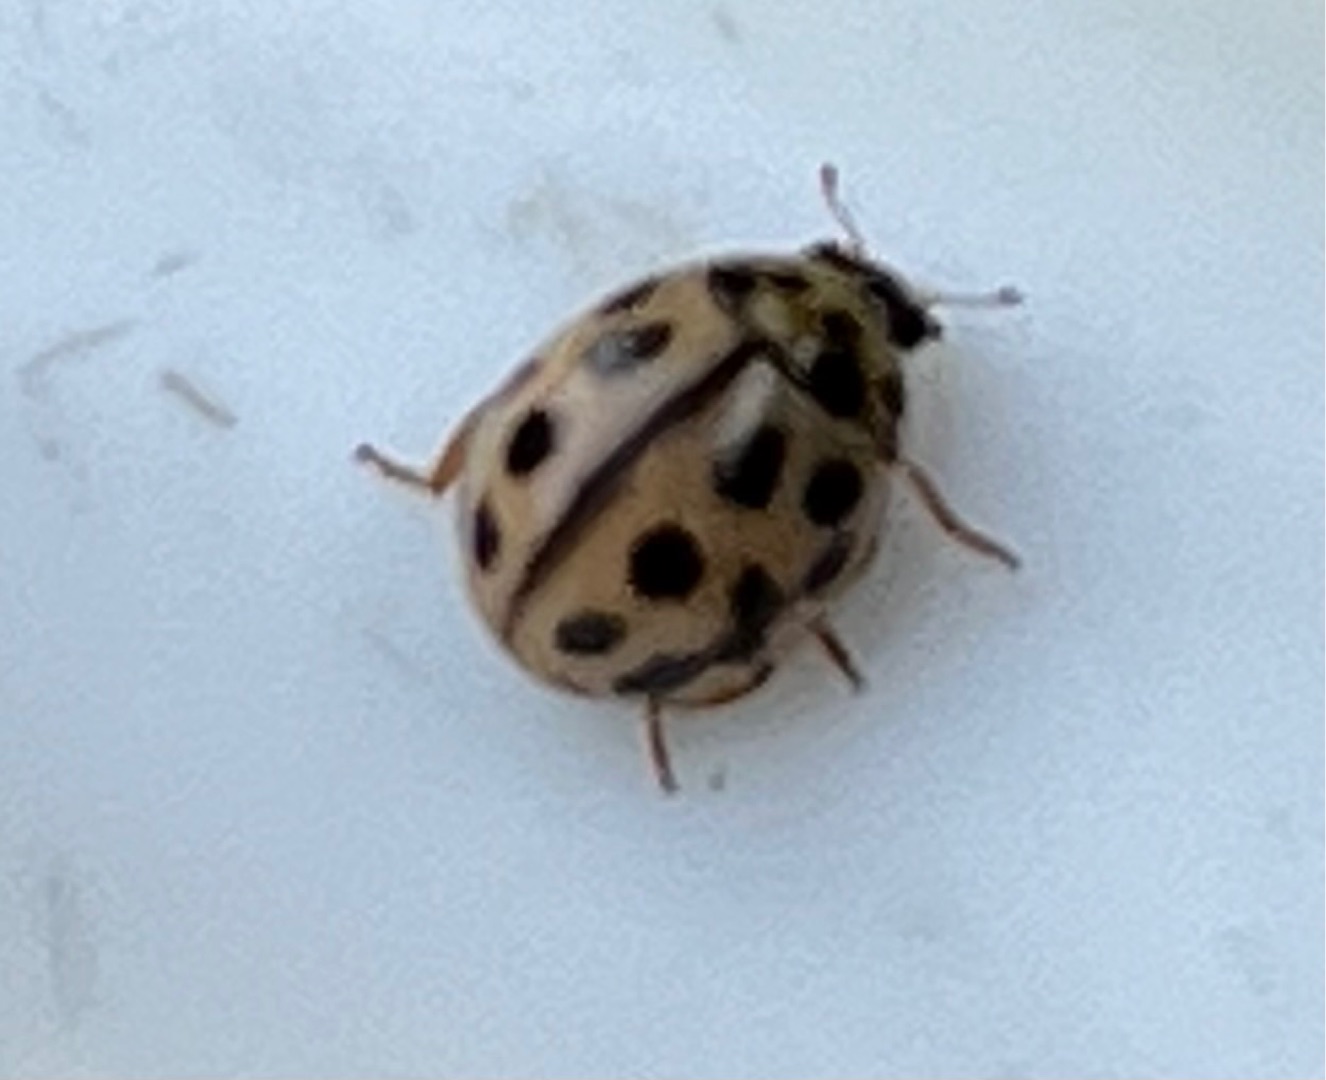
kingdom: Animalia
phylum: Arthropoda
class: Insecta
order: Coleoptera
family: Coccinellidae
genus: Tytthaspis
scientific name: Tytthaspis sedecimpunctata
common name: Sekstenprikket mariehøne
